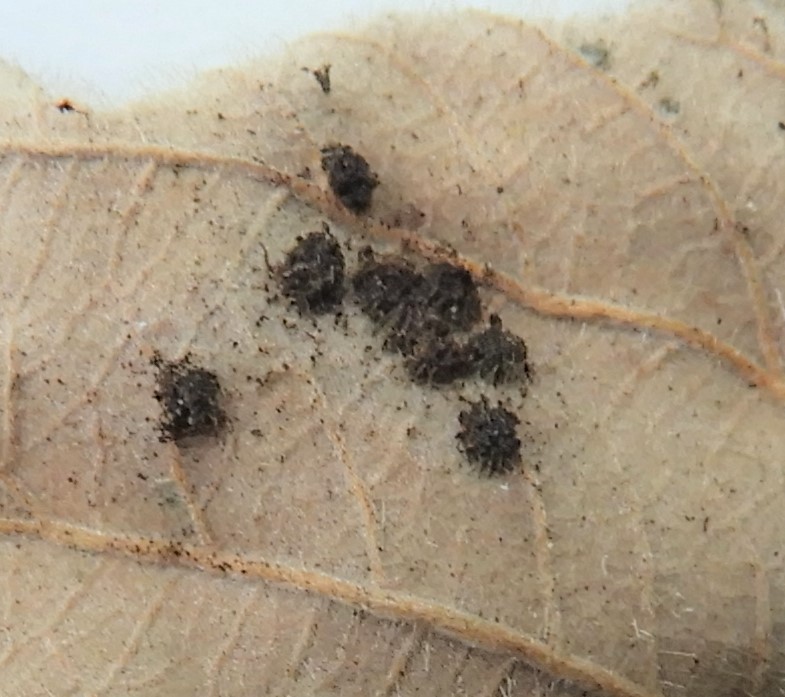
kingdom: Fungi
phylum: Basidiomycota
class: Pucciniomycetes
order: Pucciniales
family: Phragmidiaceae
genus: Phragmidium
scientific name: Phragmidium
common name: flercellerust
